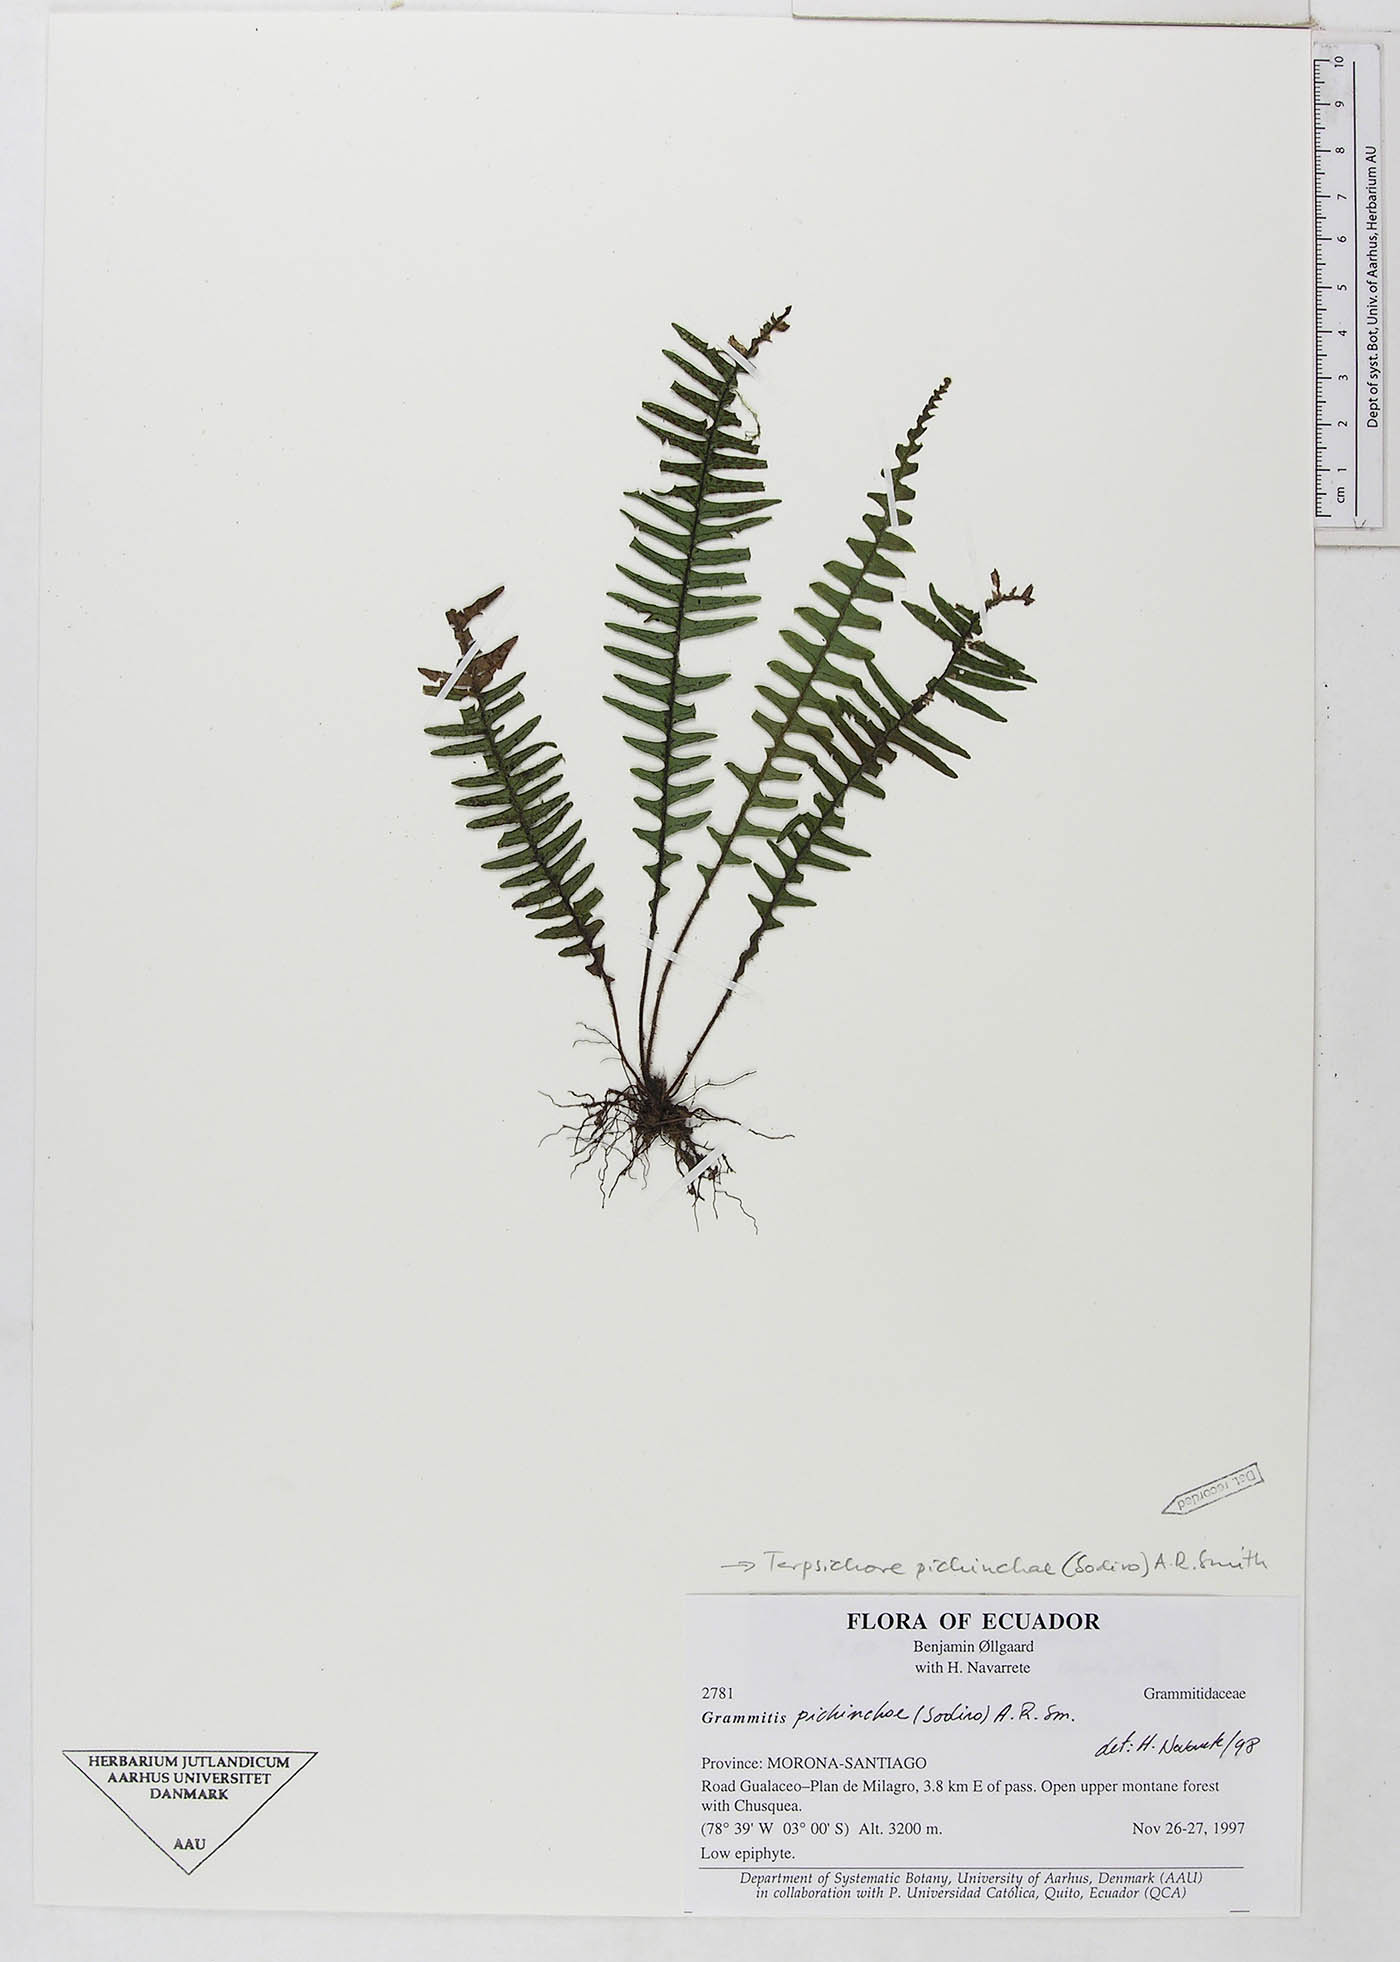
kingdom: Plantae
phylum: Tracheophyta
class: Polypodiopsida
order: Polypodiales
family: Polypodiaceae
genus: Ascogrammitis
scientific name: Ascogrammitis pichinchae
